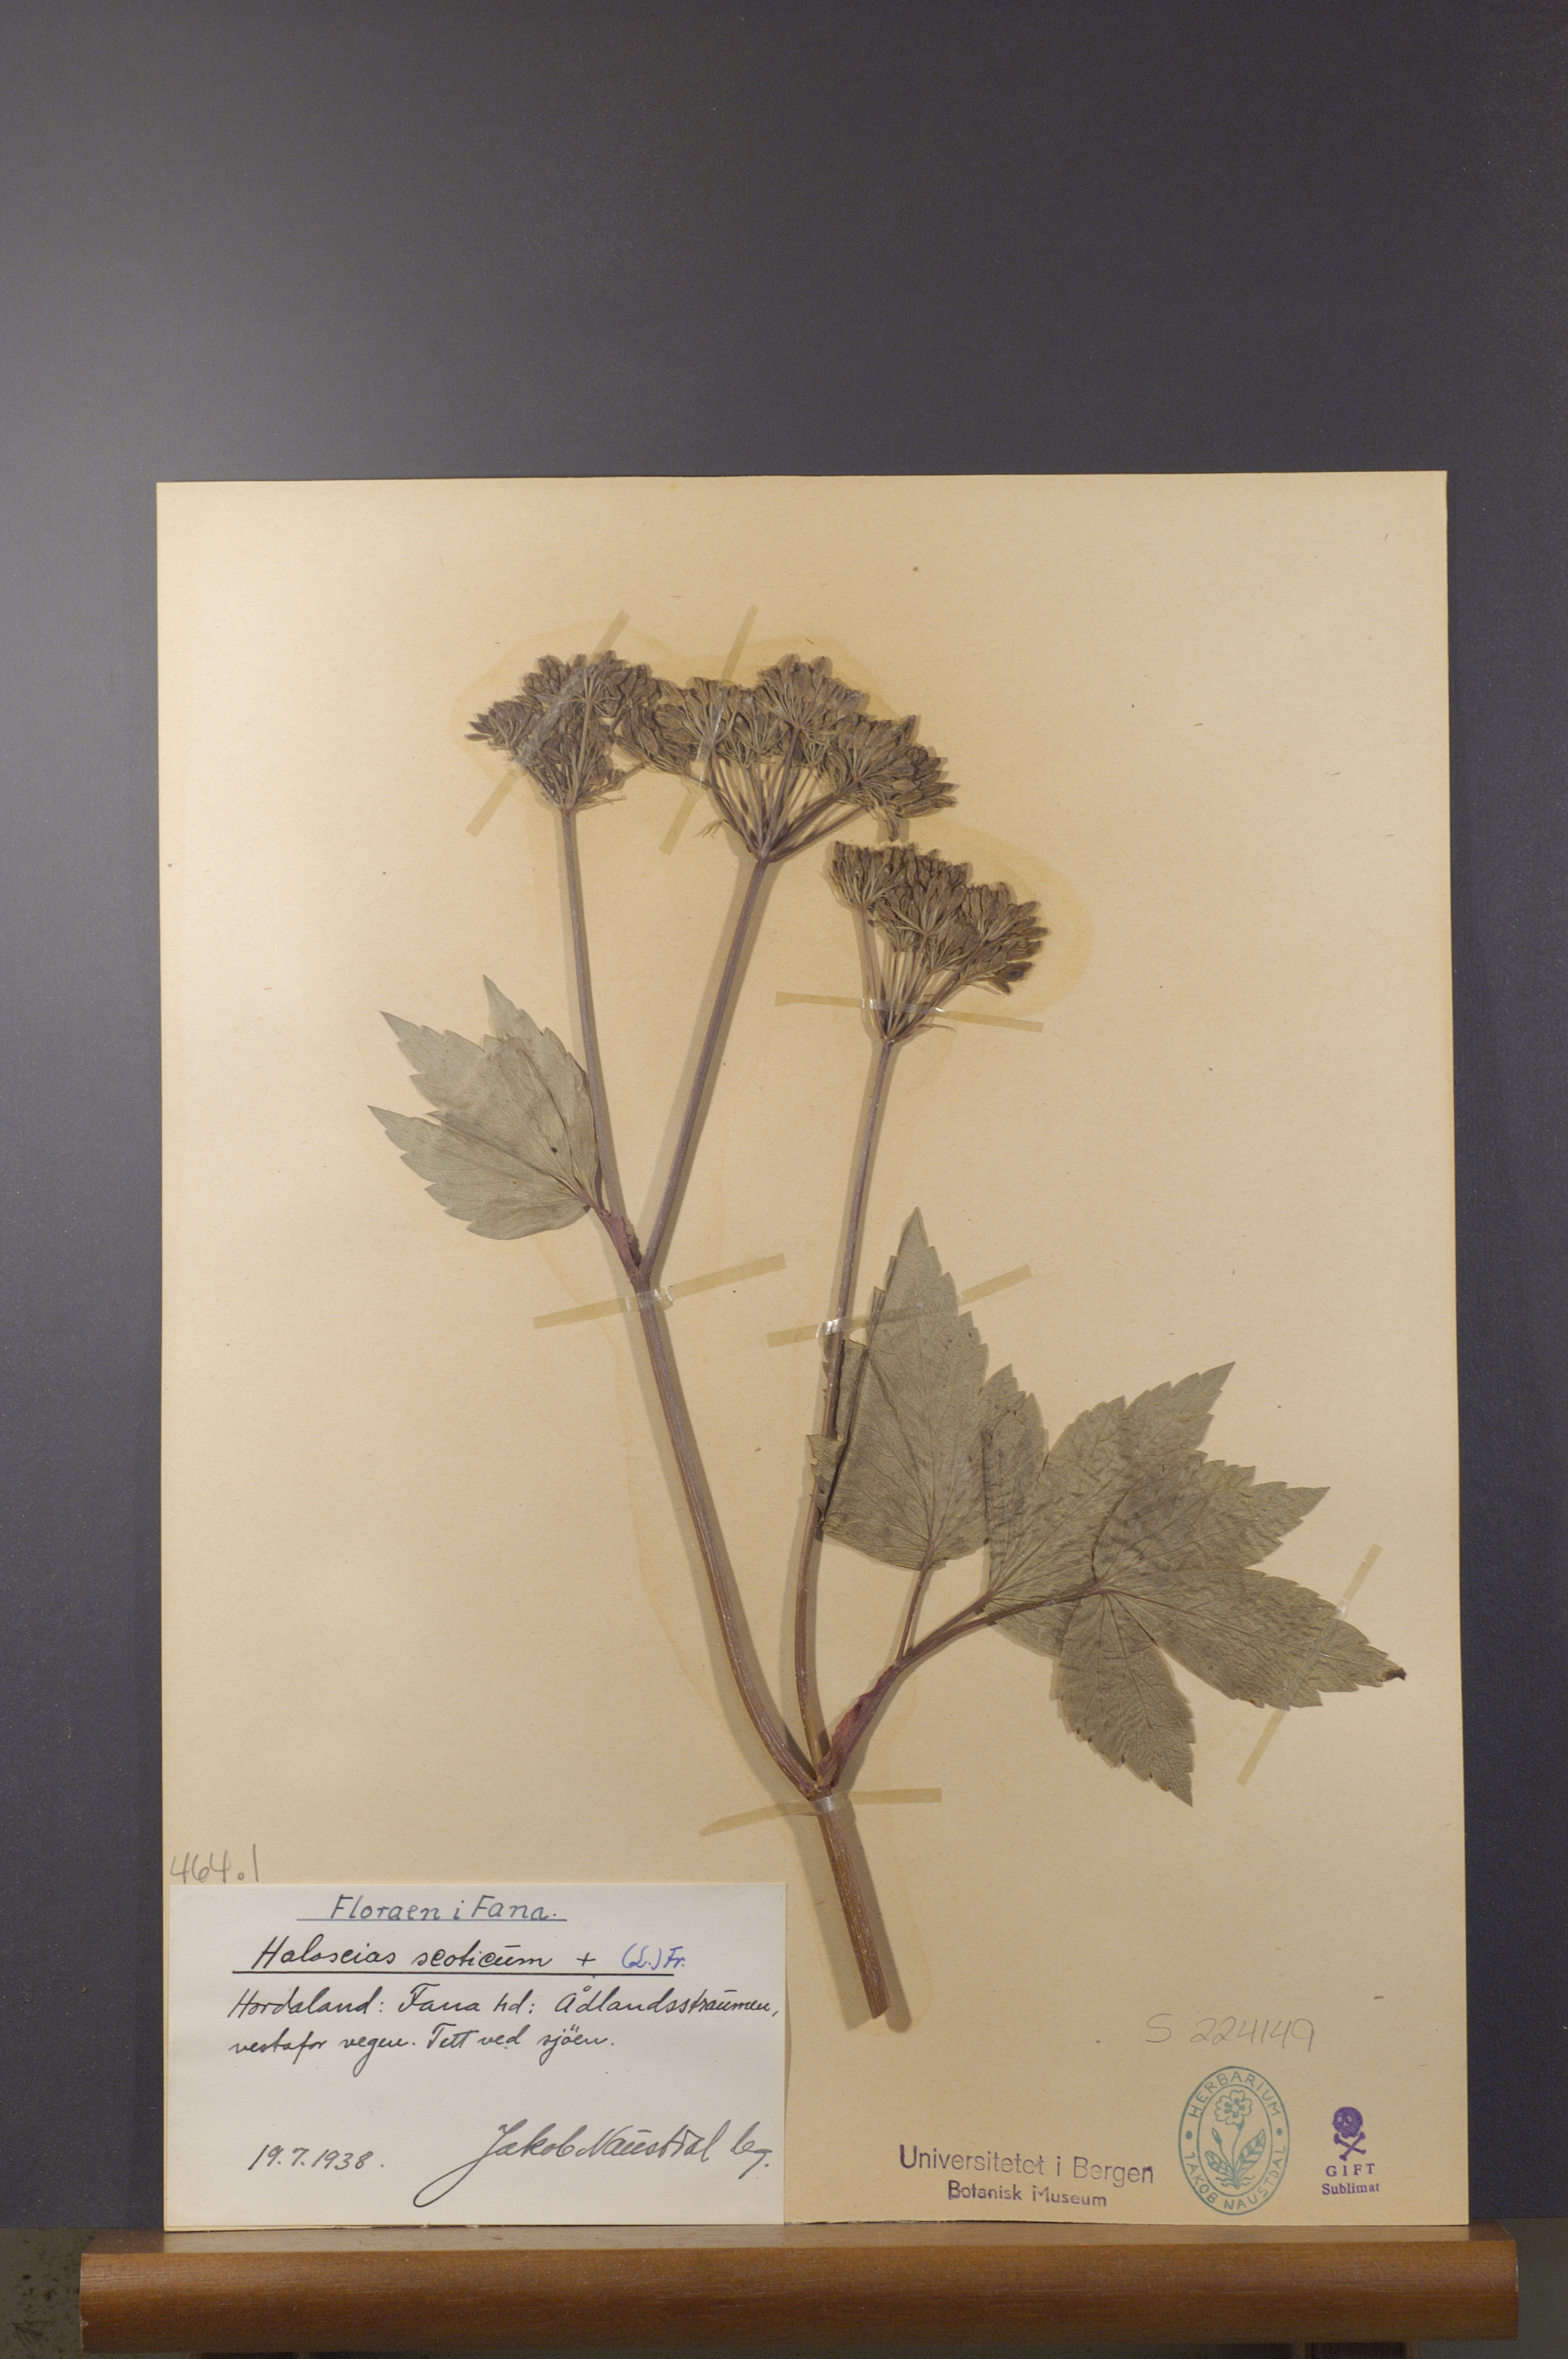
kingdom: Plantae
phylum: Tracheophyta
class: Magnoliopsida
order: Apiales
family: Apiaceae
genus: Ligusticum
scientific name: Ligusticum scothicum
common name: Beach lovage
